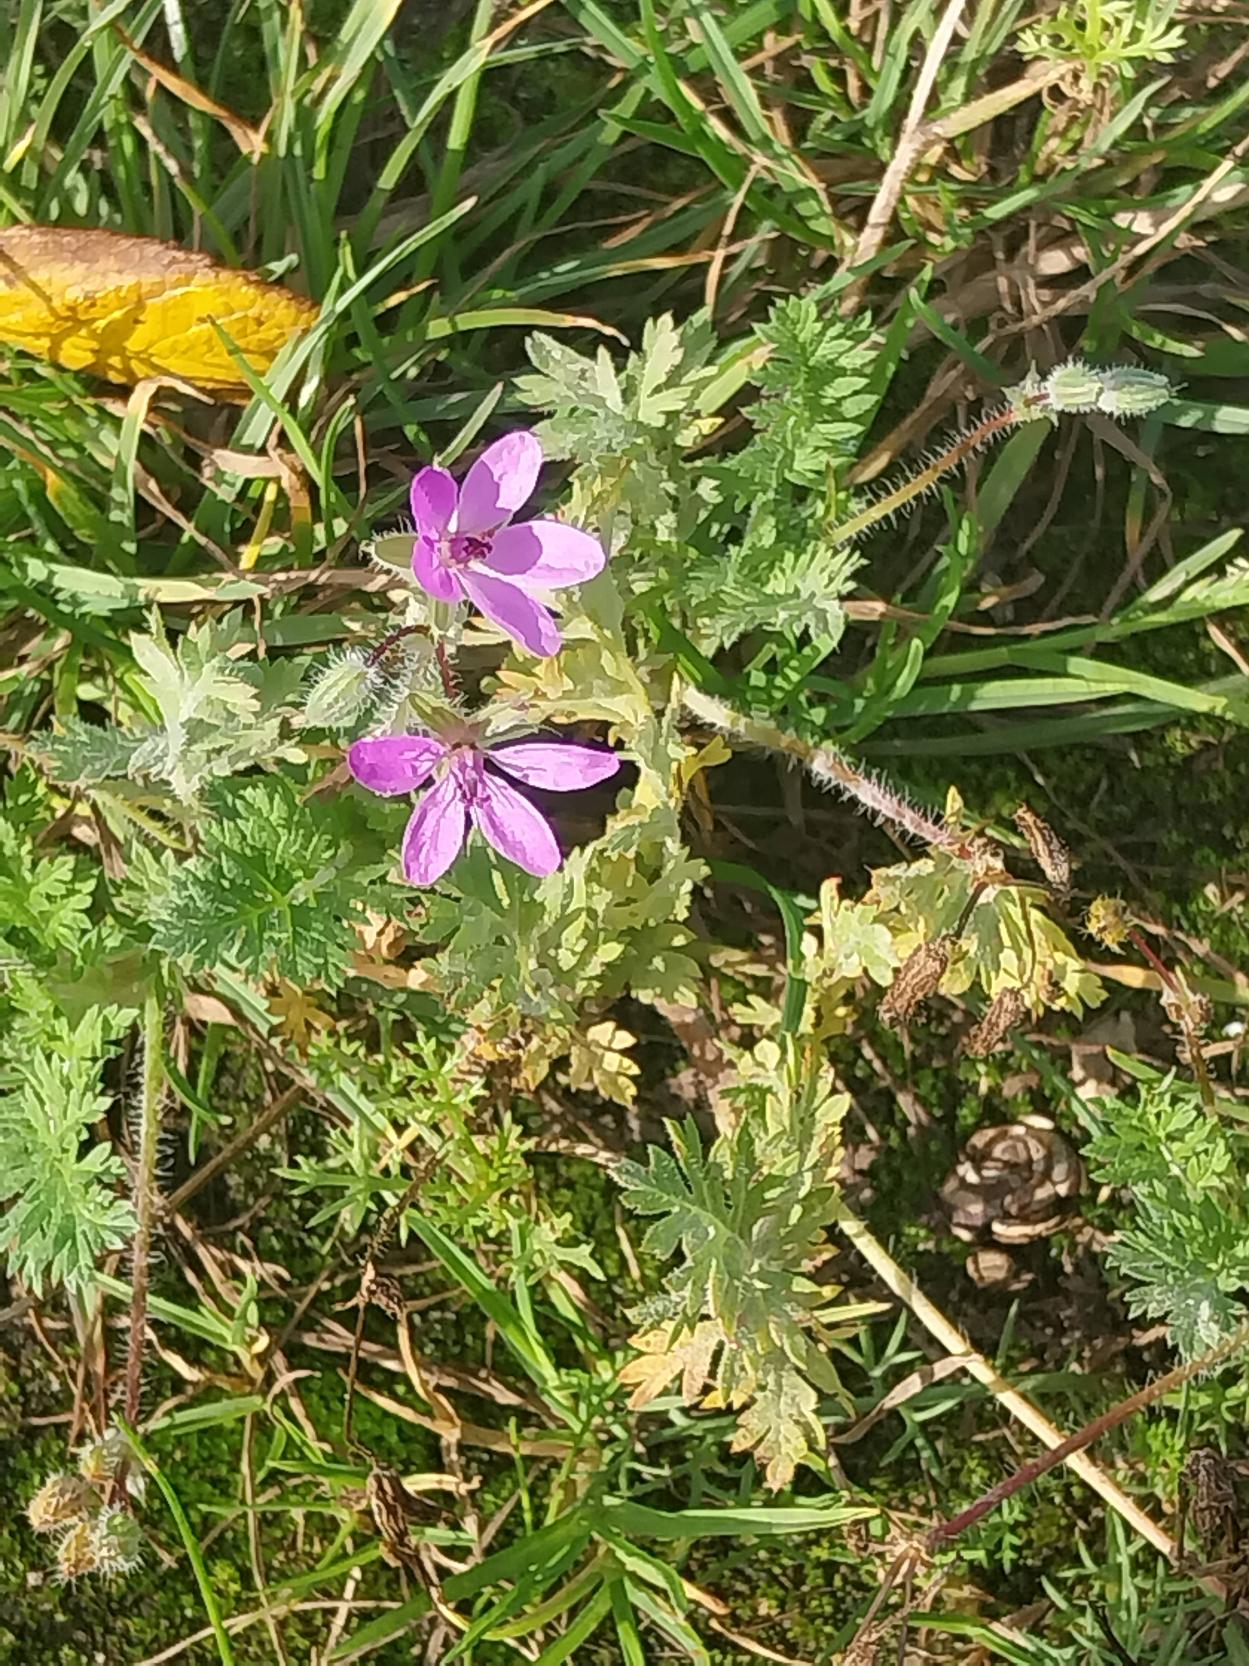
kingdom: Plantae
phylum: Tracheophyta
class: Magnoliopsida
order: Geraniales
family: Geraniaceae
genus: Erodium
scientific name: Erodium cicutarium
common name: Hejrenæb
